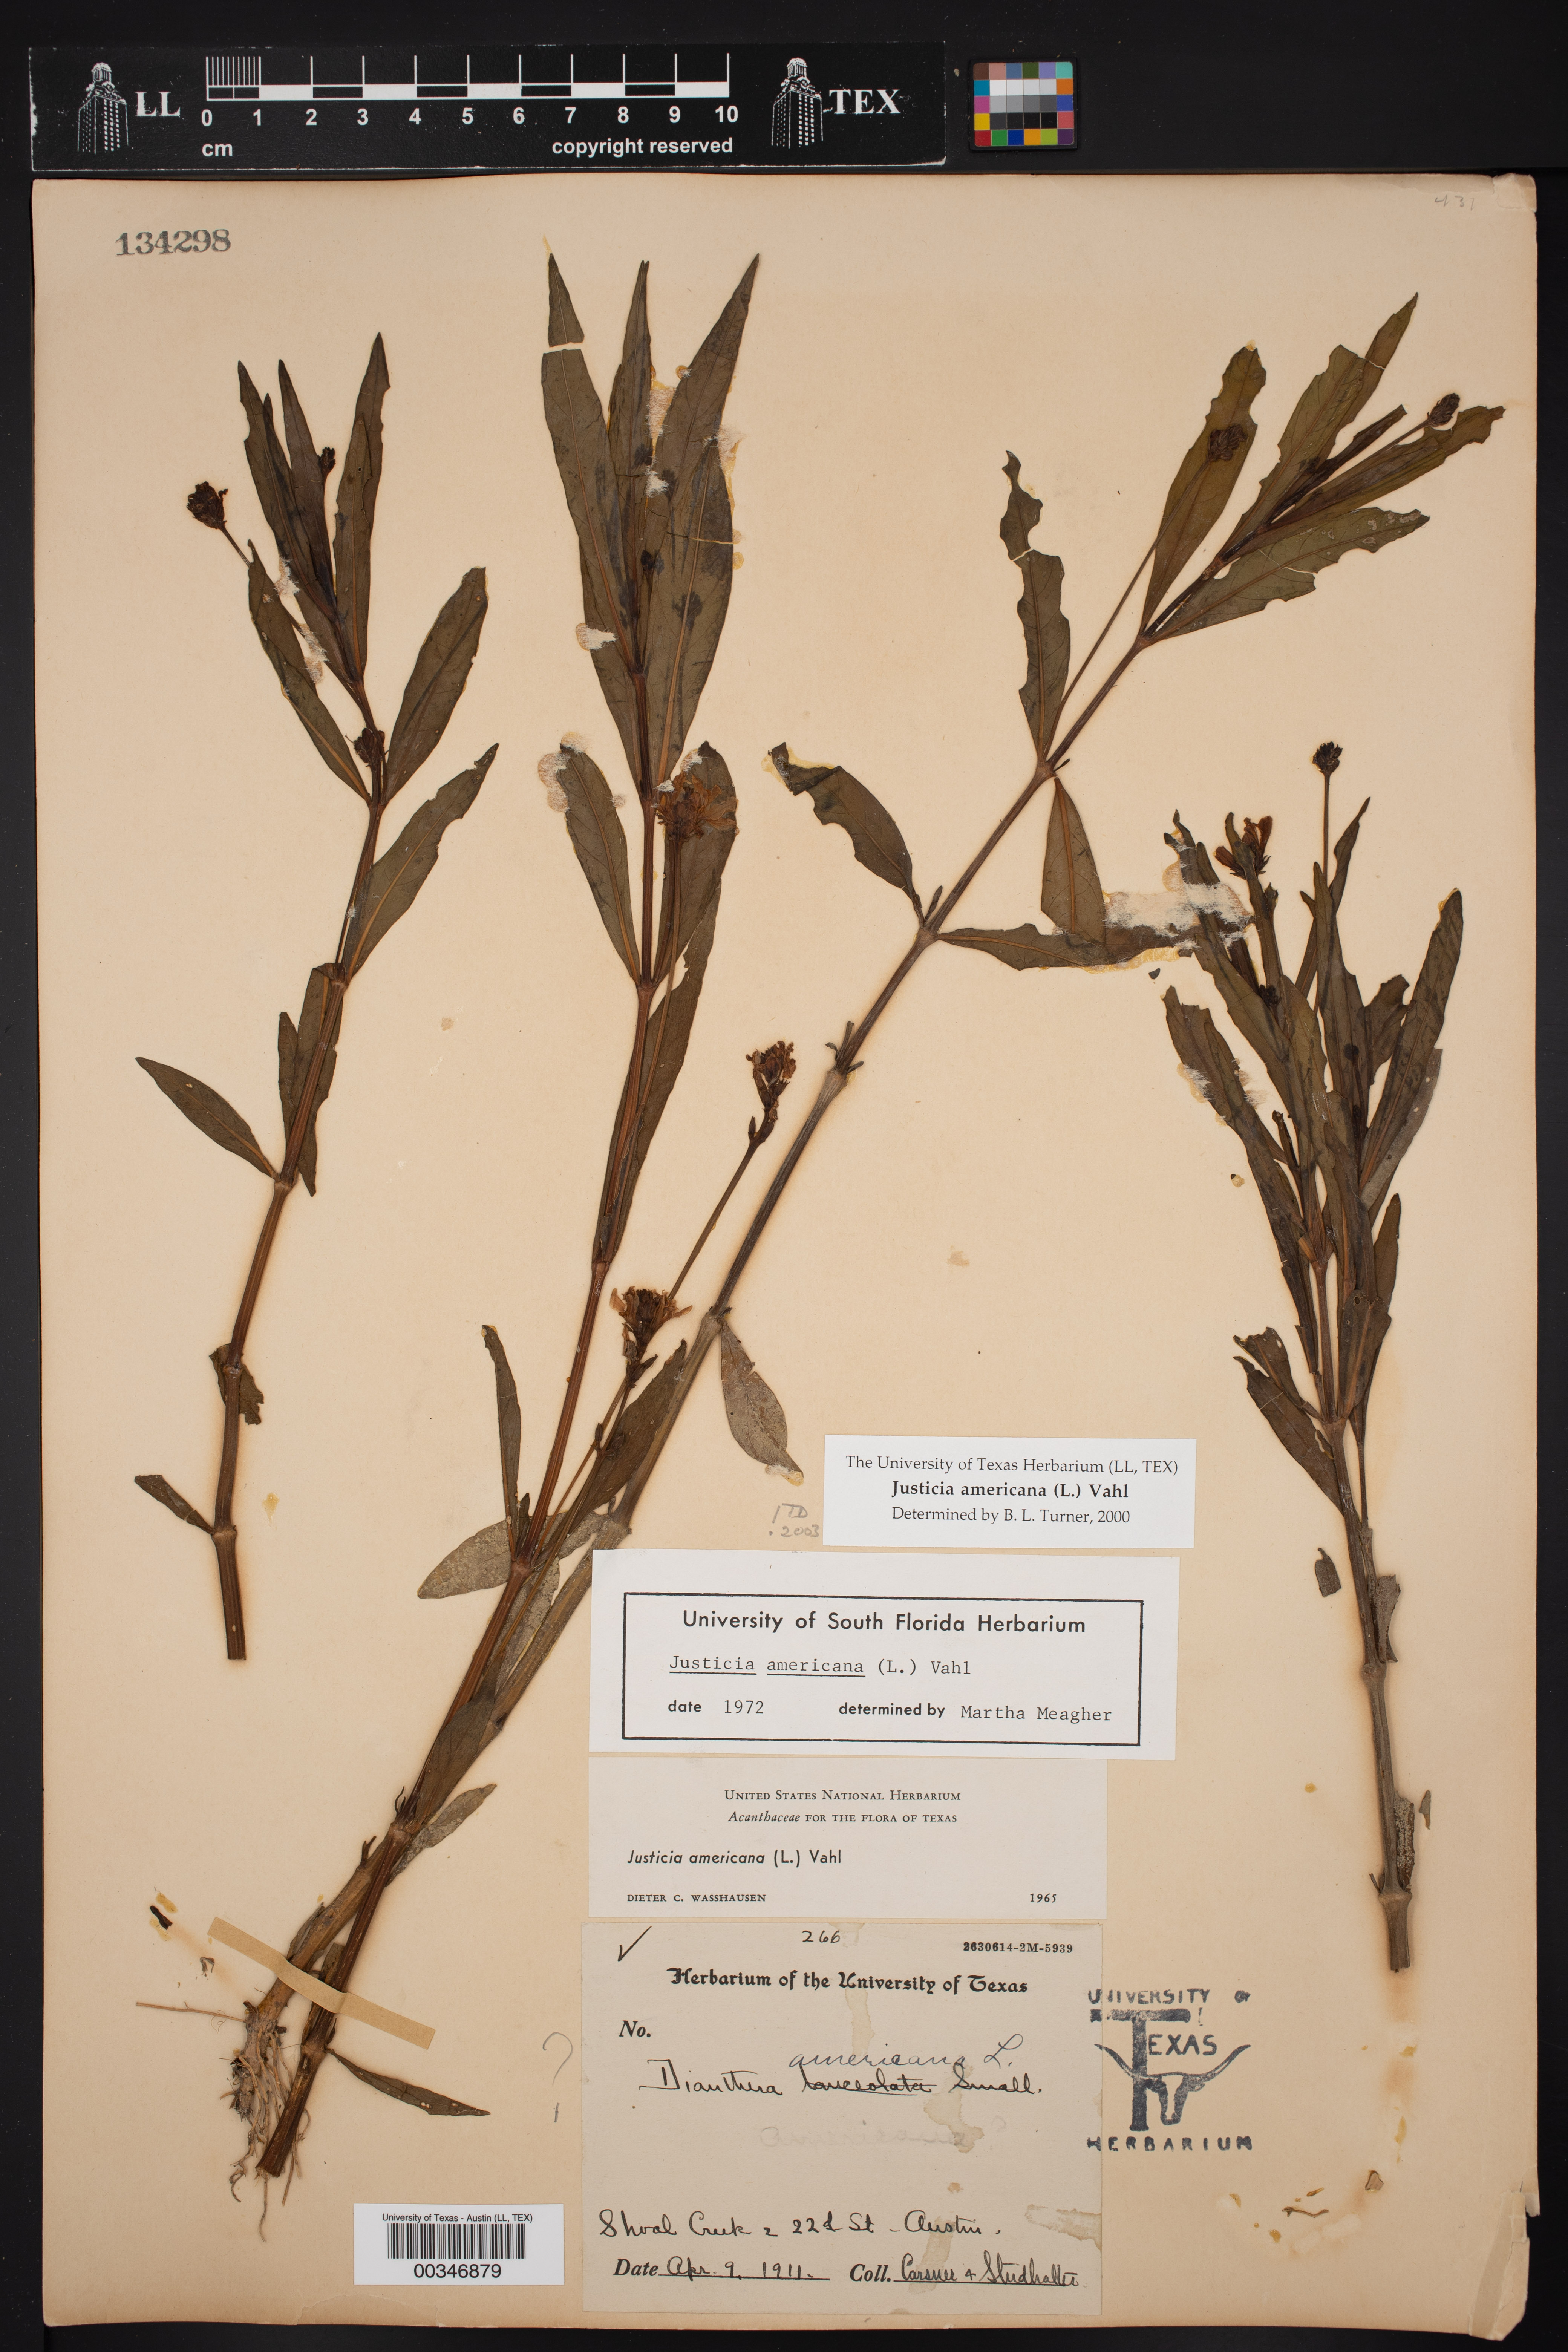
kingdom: Plantae
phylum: Tracheophyta
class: Magnoliopsida
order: Lamiales
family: Acanthaceae
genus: Dianthera
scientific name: Dianthera americana
